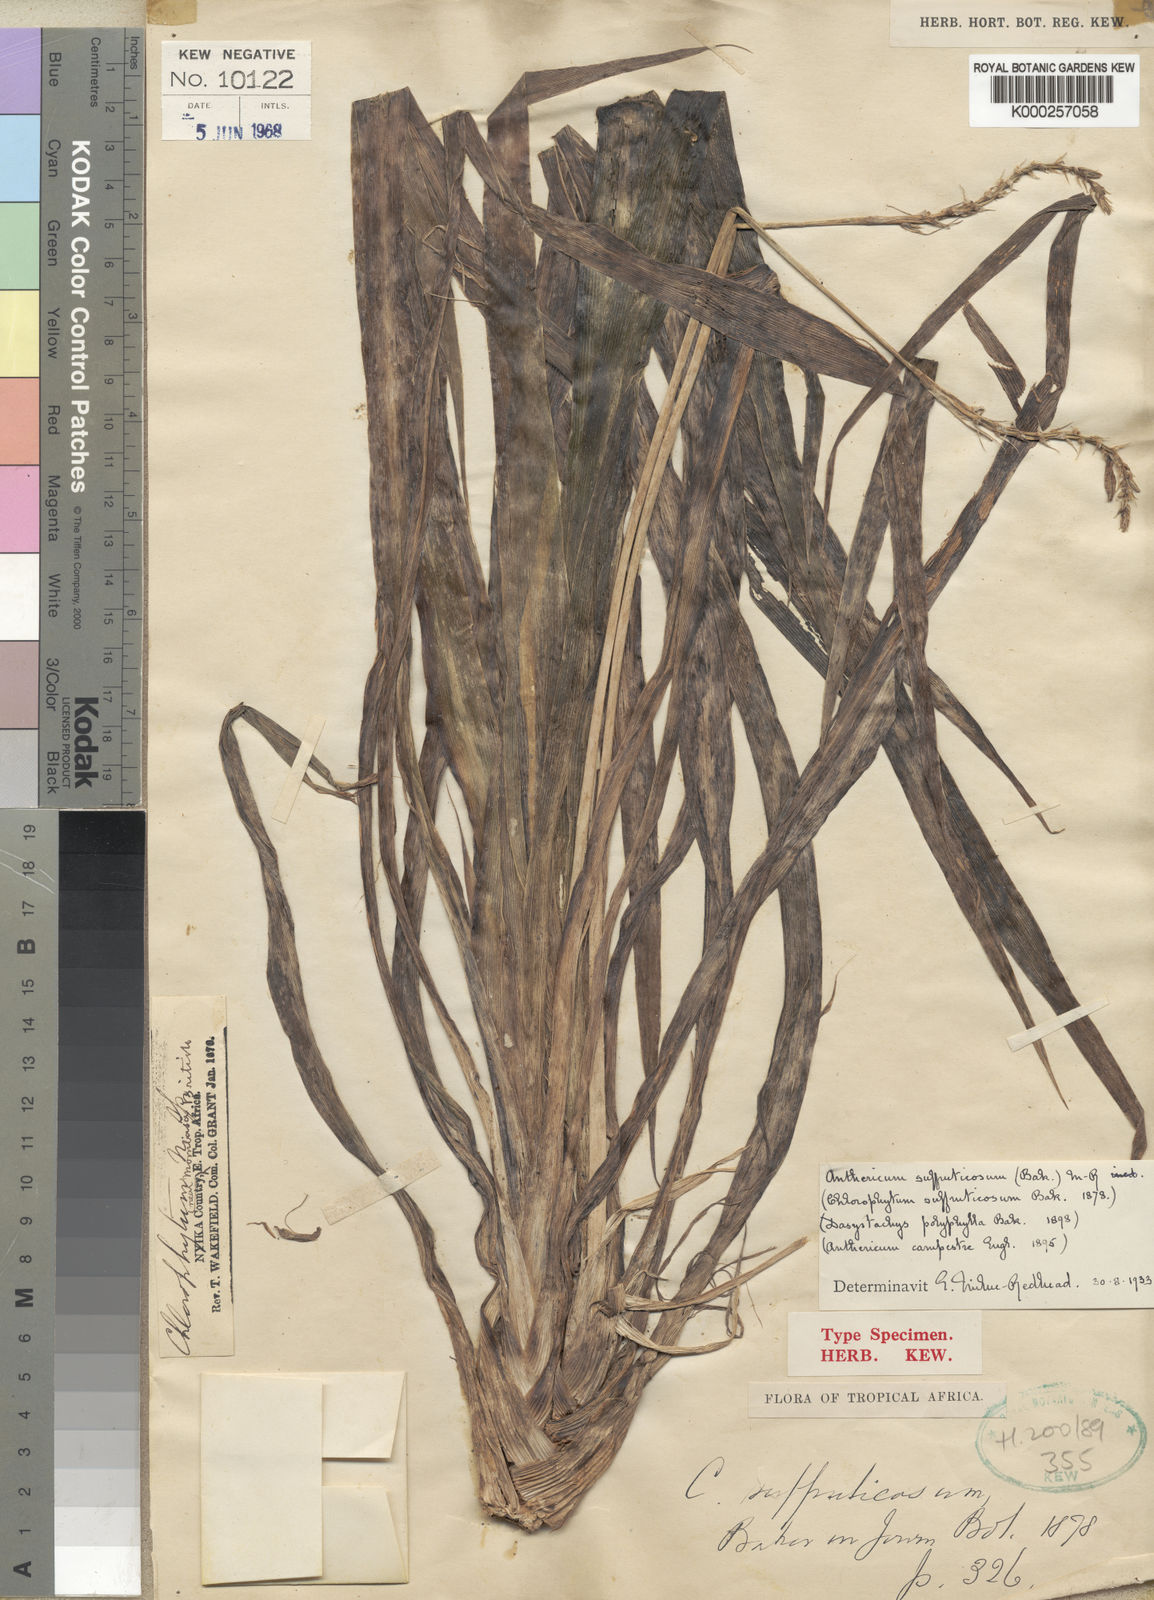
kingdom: Plantae
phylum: Tracheophyta
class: Liliopsida
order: Asparagales
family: Asparagaceae
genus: Chlorophytum
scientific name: Chlorophytum suffruticosum
